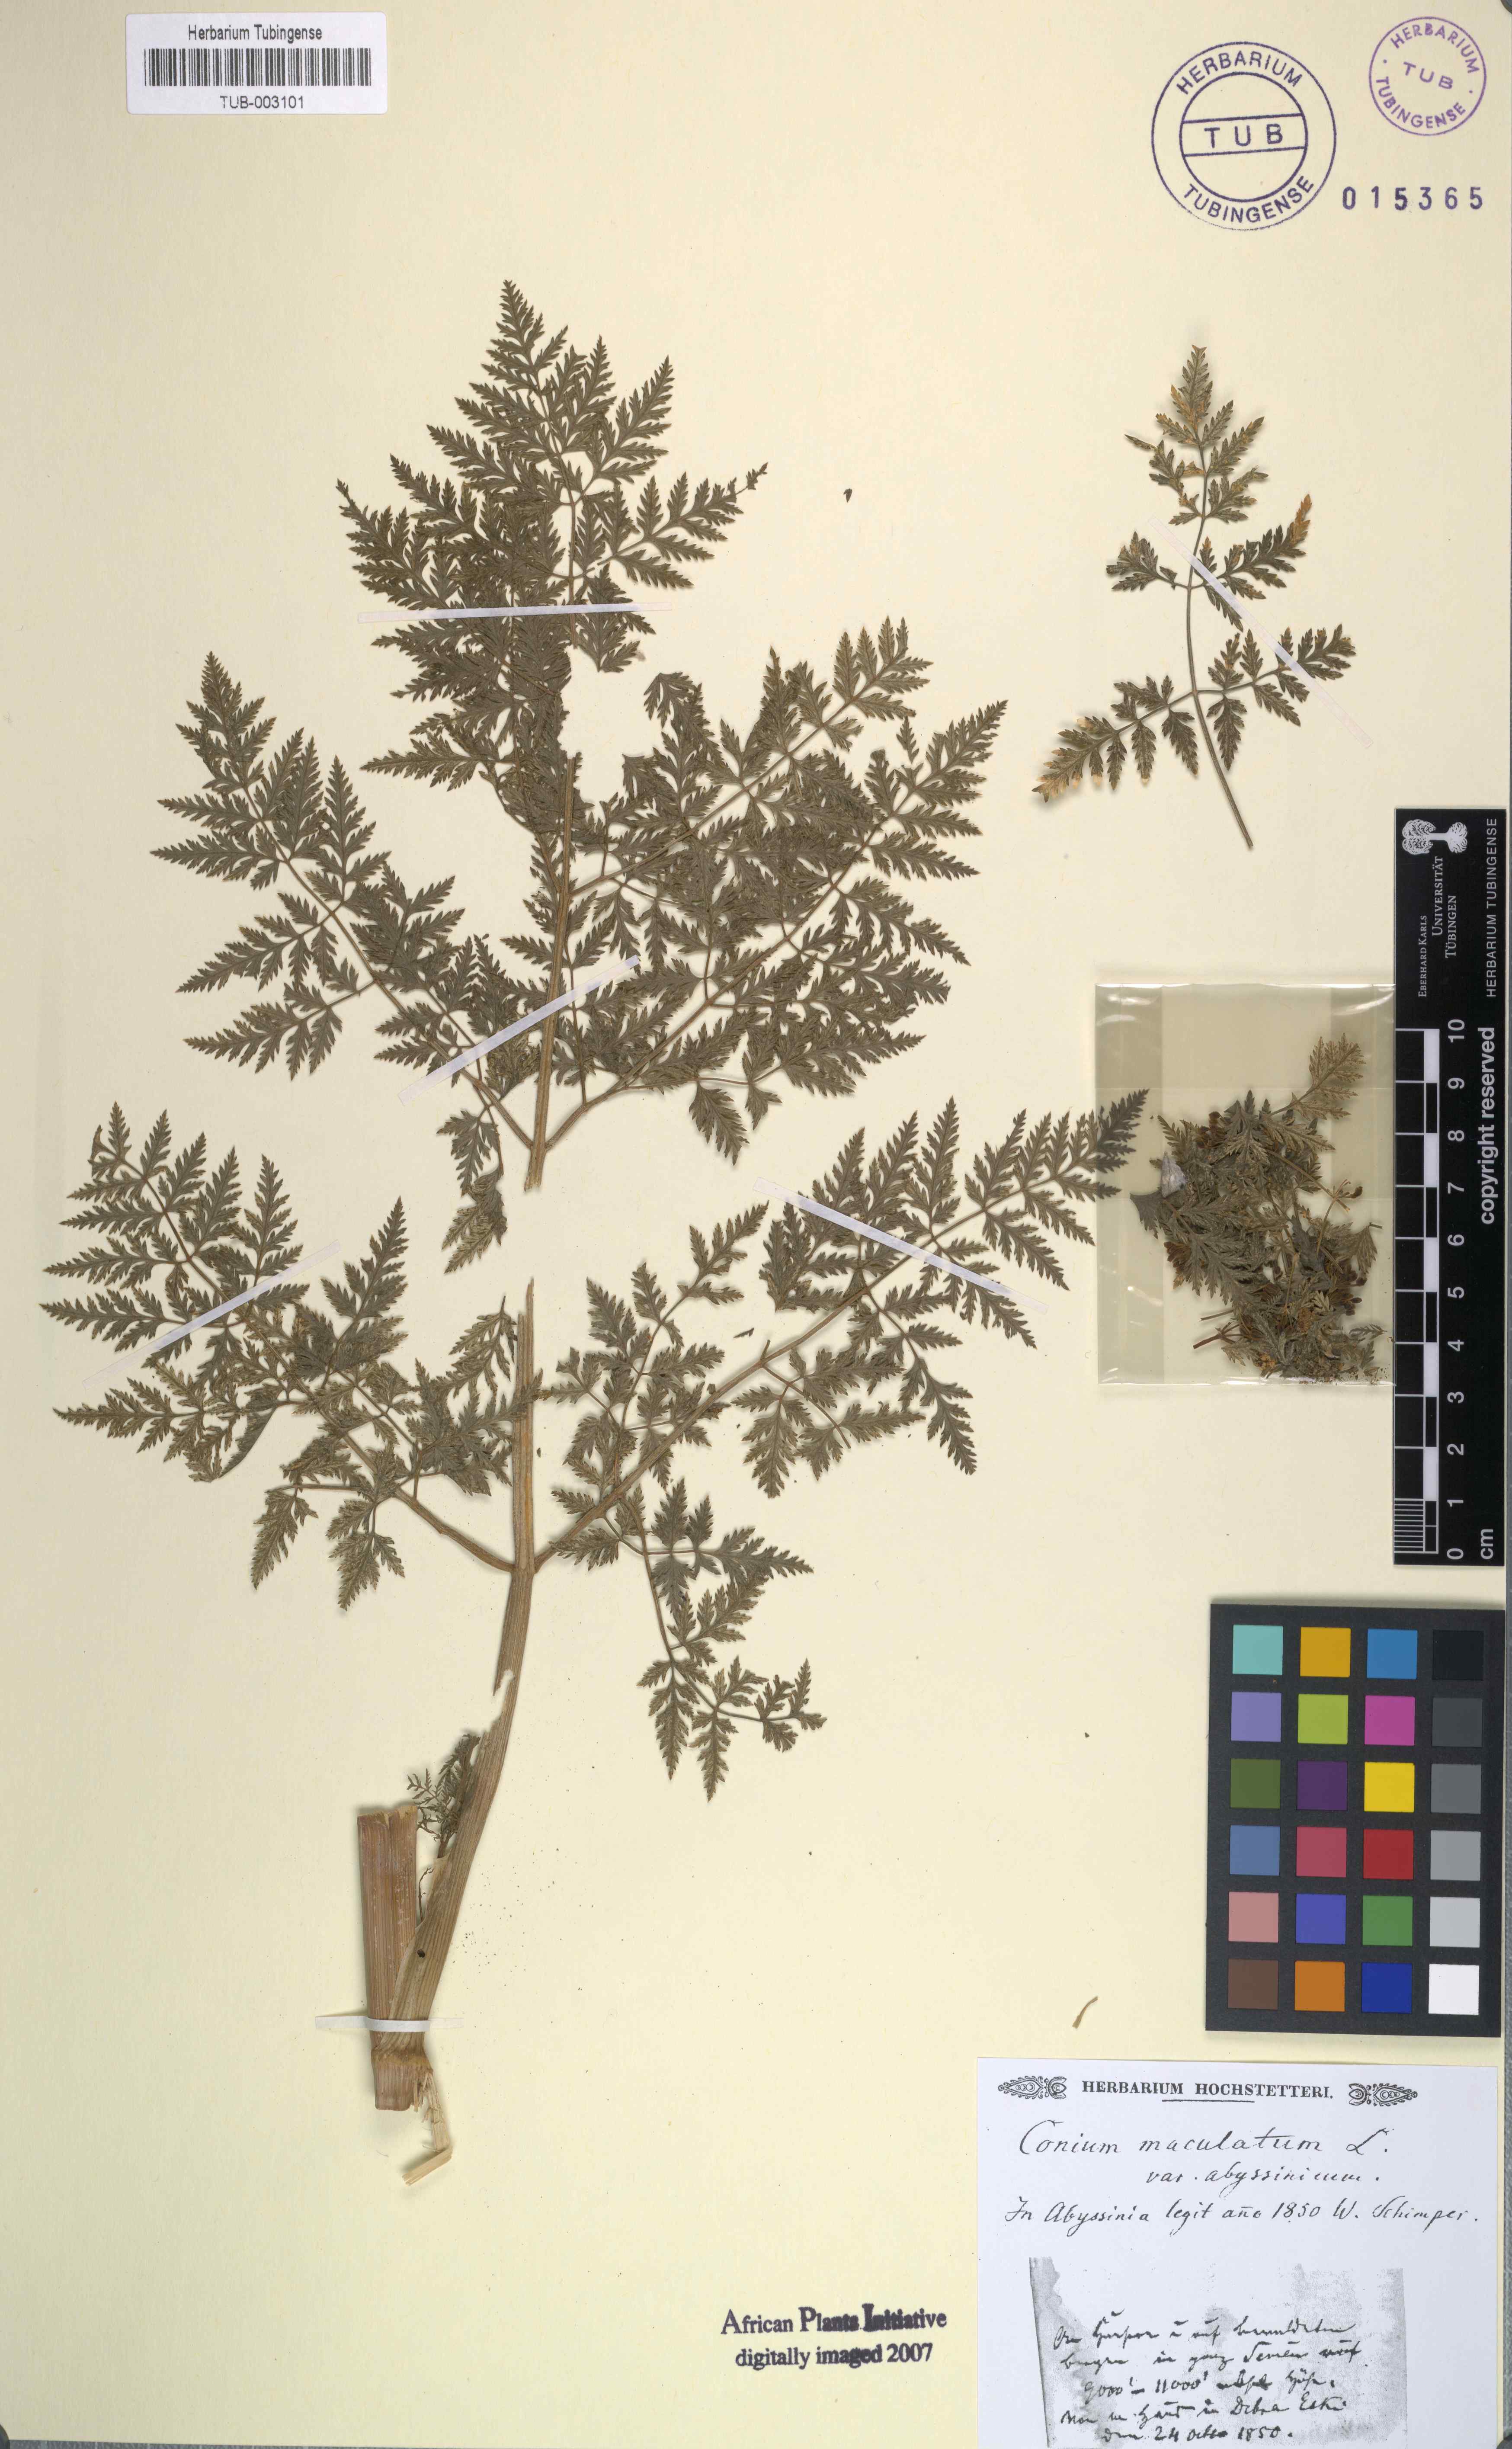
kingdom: Plantae
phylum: Tracheophyta
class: Magnoliopsida
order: Apiales
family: Apiaceae
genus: Conium
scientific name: Conium maculatum
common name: Hemlock
